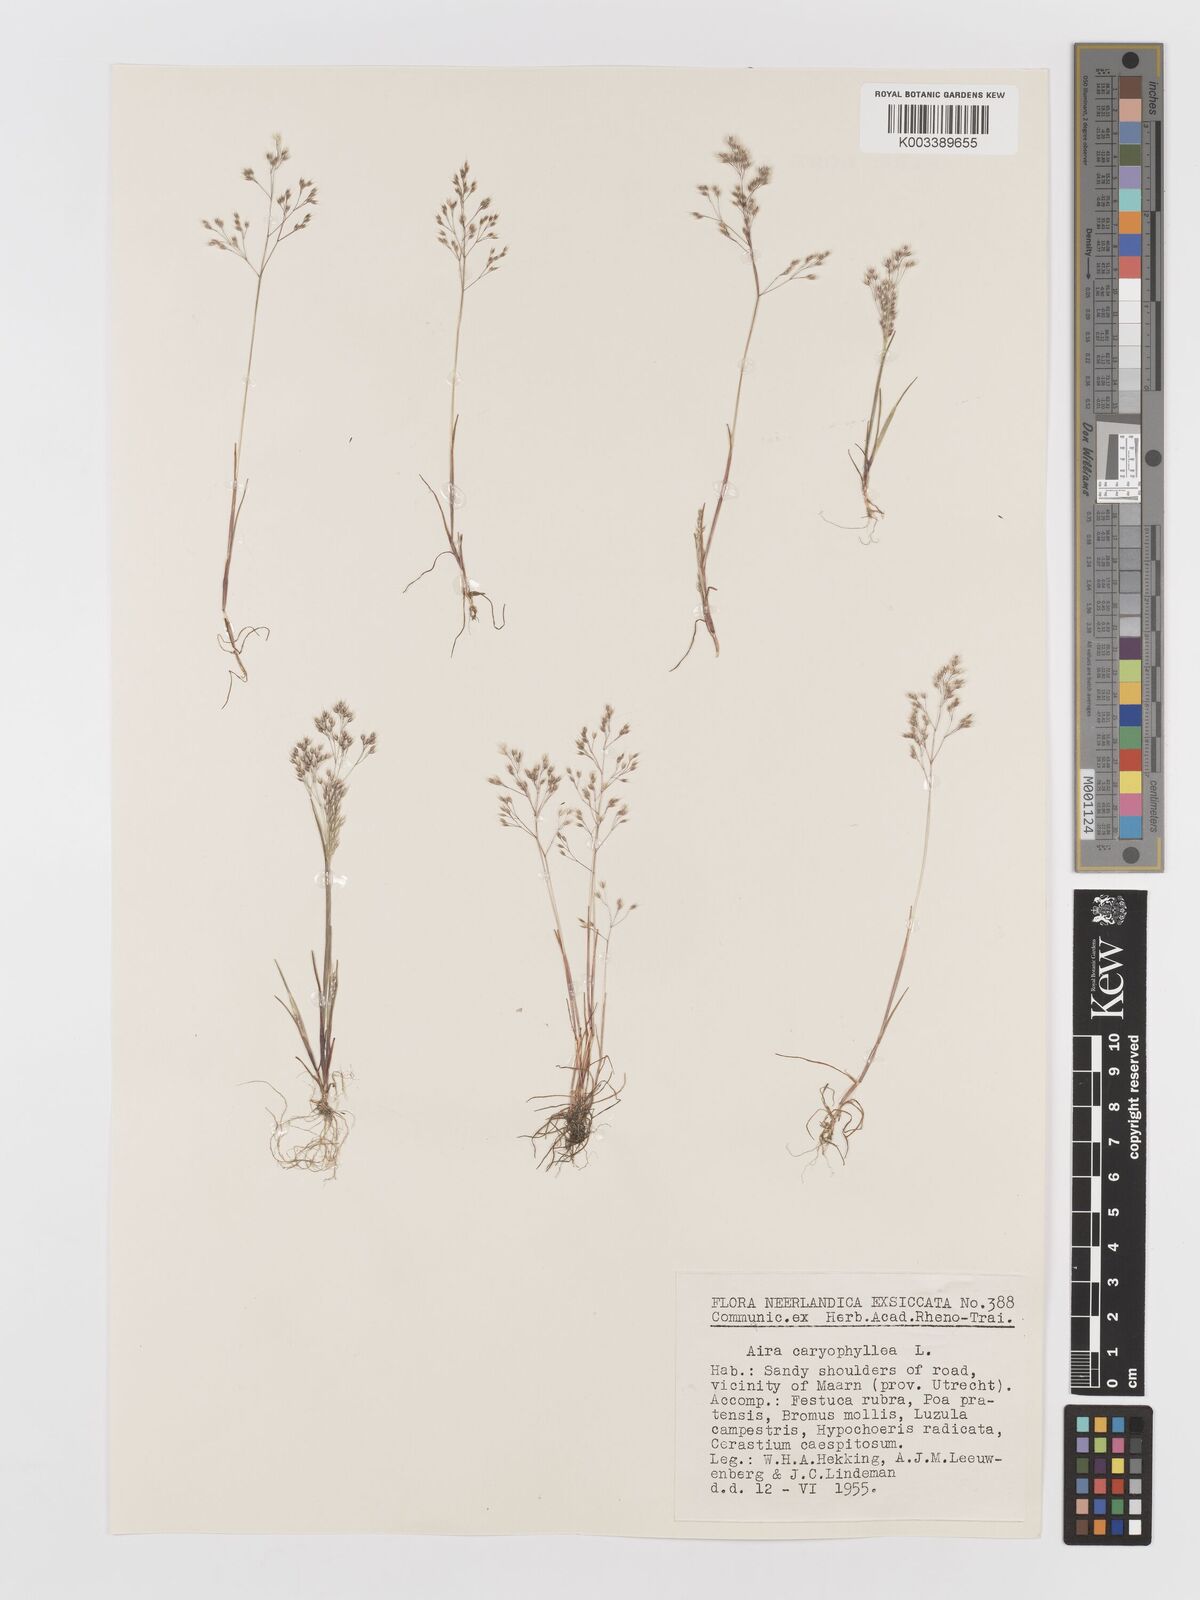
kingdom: Plantae
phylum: Tracheophyta
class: Liliopsida
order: Poales
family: Poaceae
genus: Aira
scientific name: Aira caryophyllea
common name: Silver hairgrass
